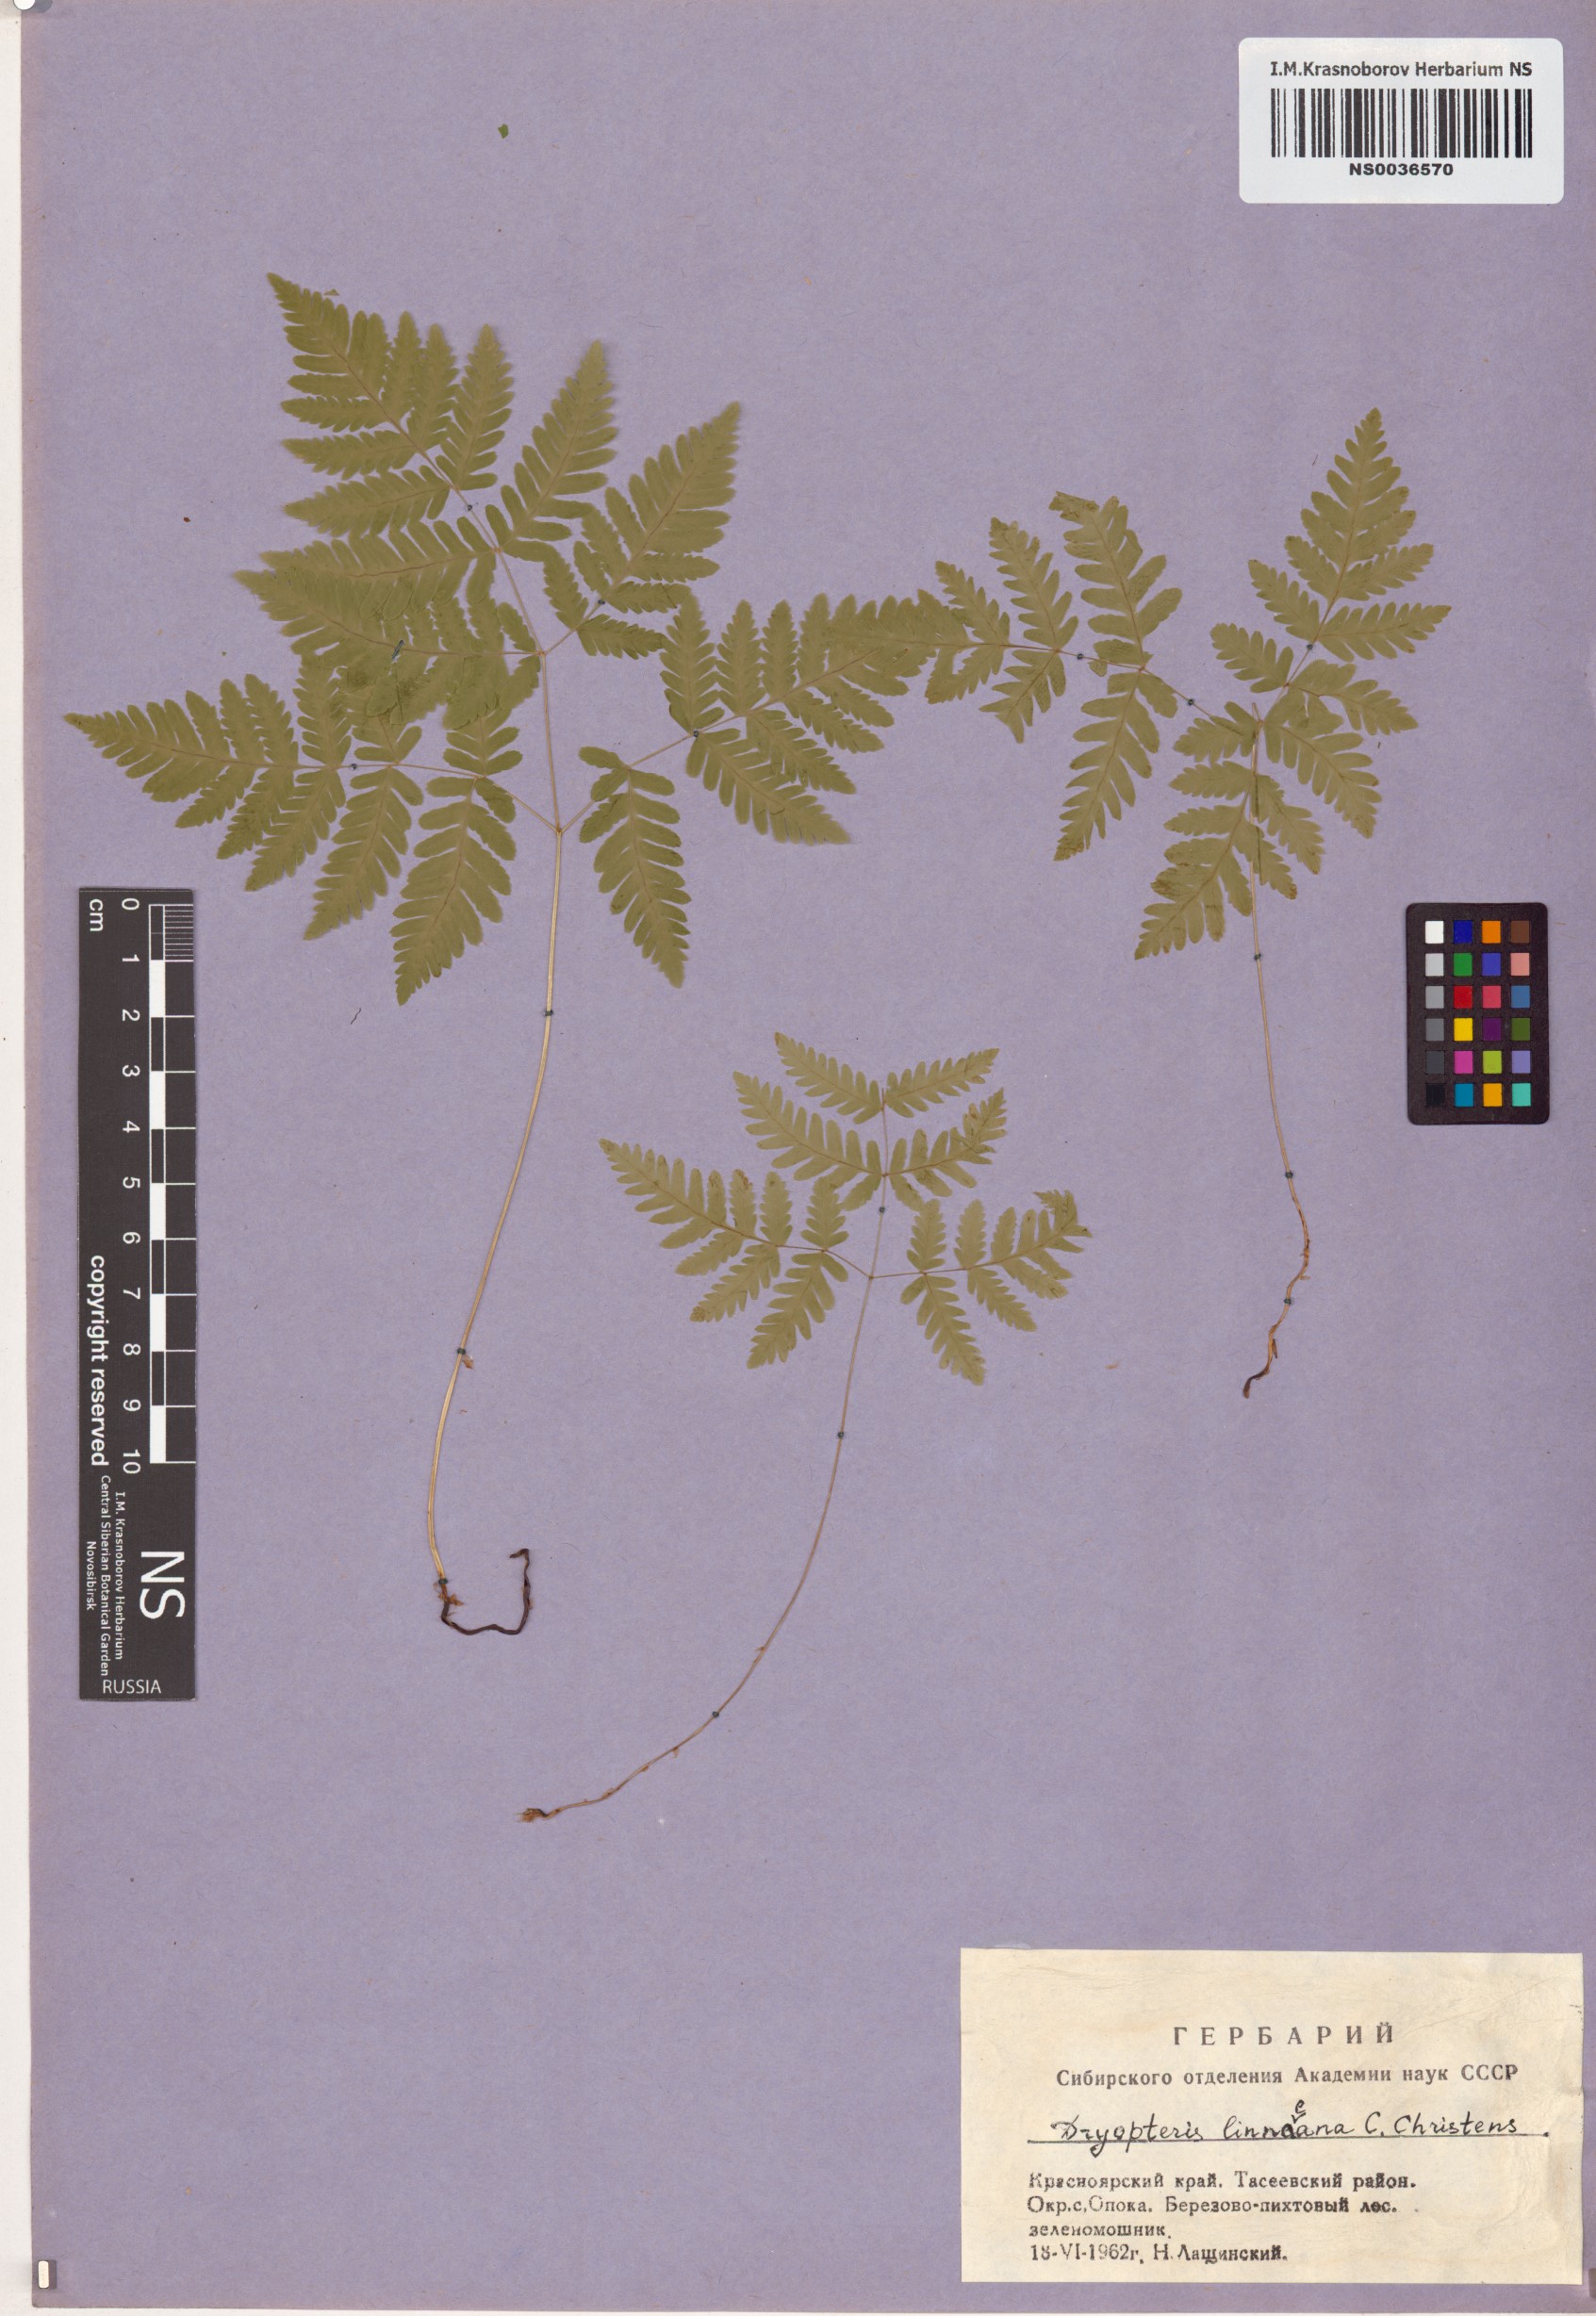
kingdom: Plantae
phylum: Tracheophyta
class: Polypodiopsida
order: Polypodiales
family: Cystopteridaceae
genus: Gymnocarpium
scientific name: Gymnocarpium dryopteris
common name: Oak fern
